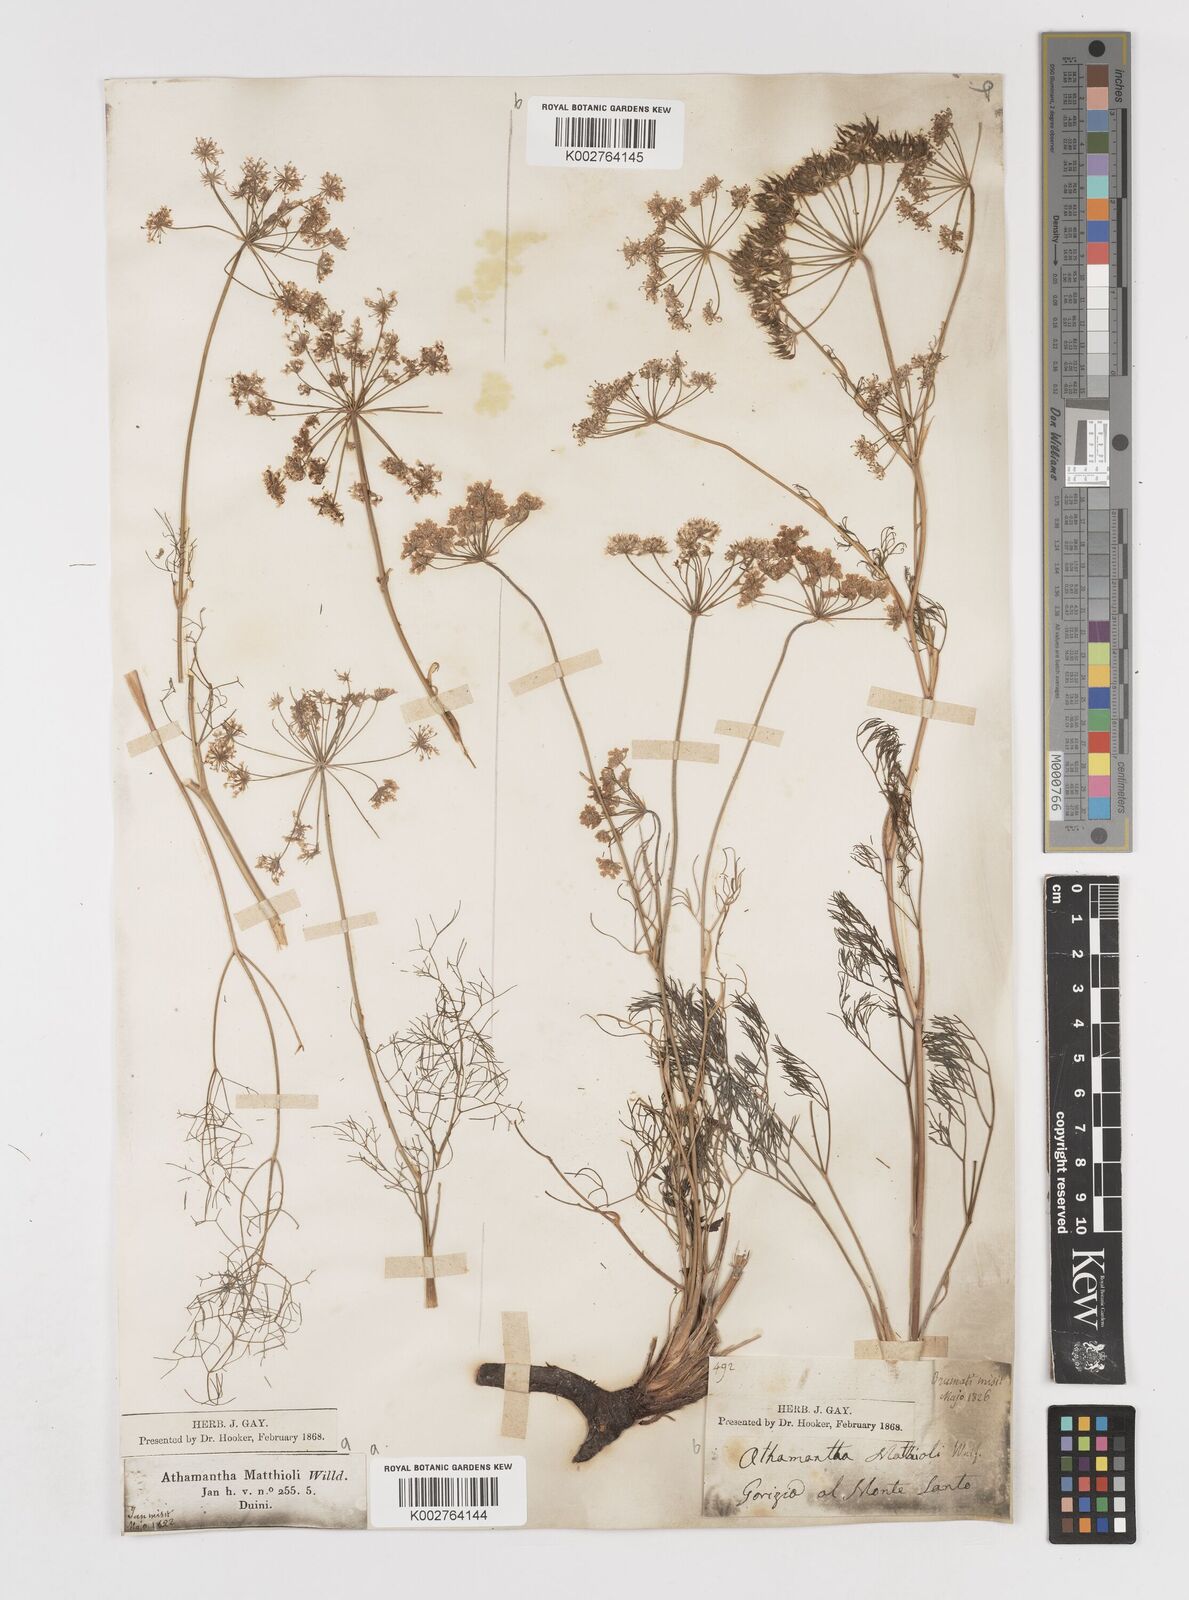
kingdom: Plantae
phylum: Tracheophyta
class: Magnoliopsida
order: Apiales
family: Apiaceae
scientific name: Apiaceae
